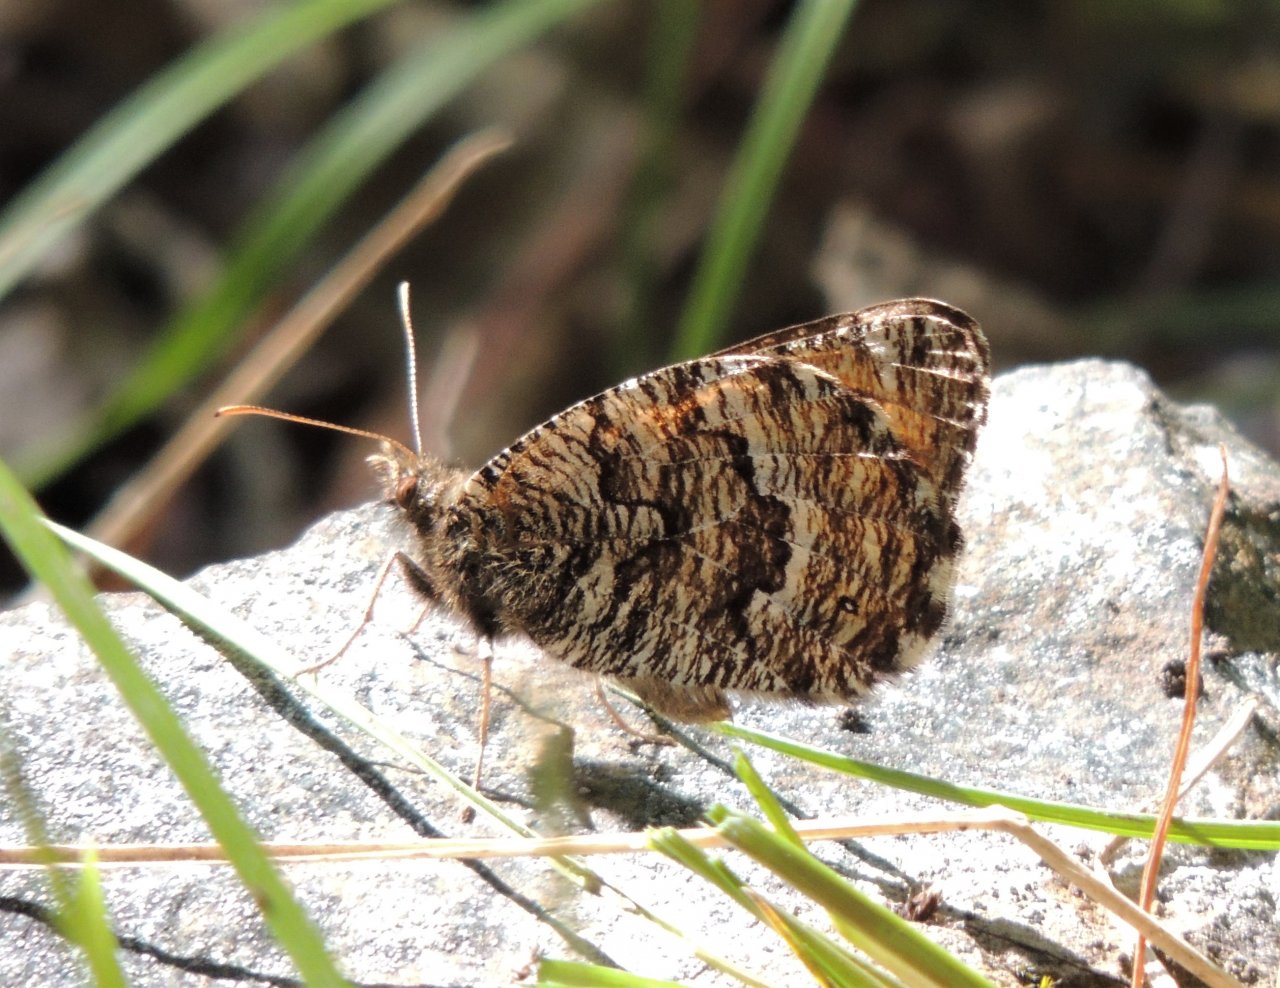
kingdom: Animalia
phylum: Arthropoda
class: Insecta
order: Lepidoptera
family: Nymphalidae
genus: Oeneis
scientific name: Oeneis chryxus
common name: Chryxus Arctic
